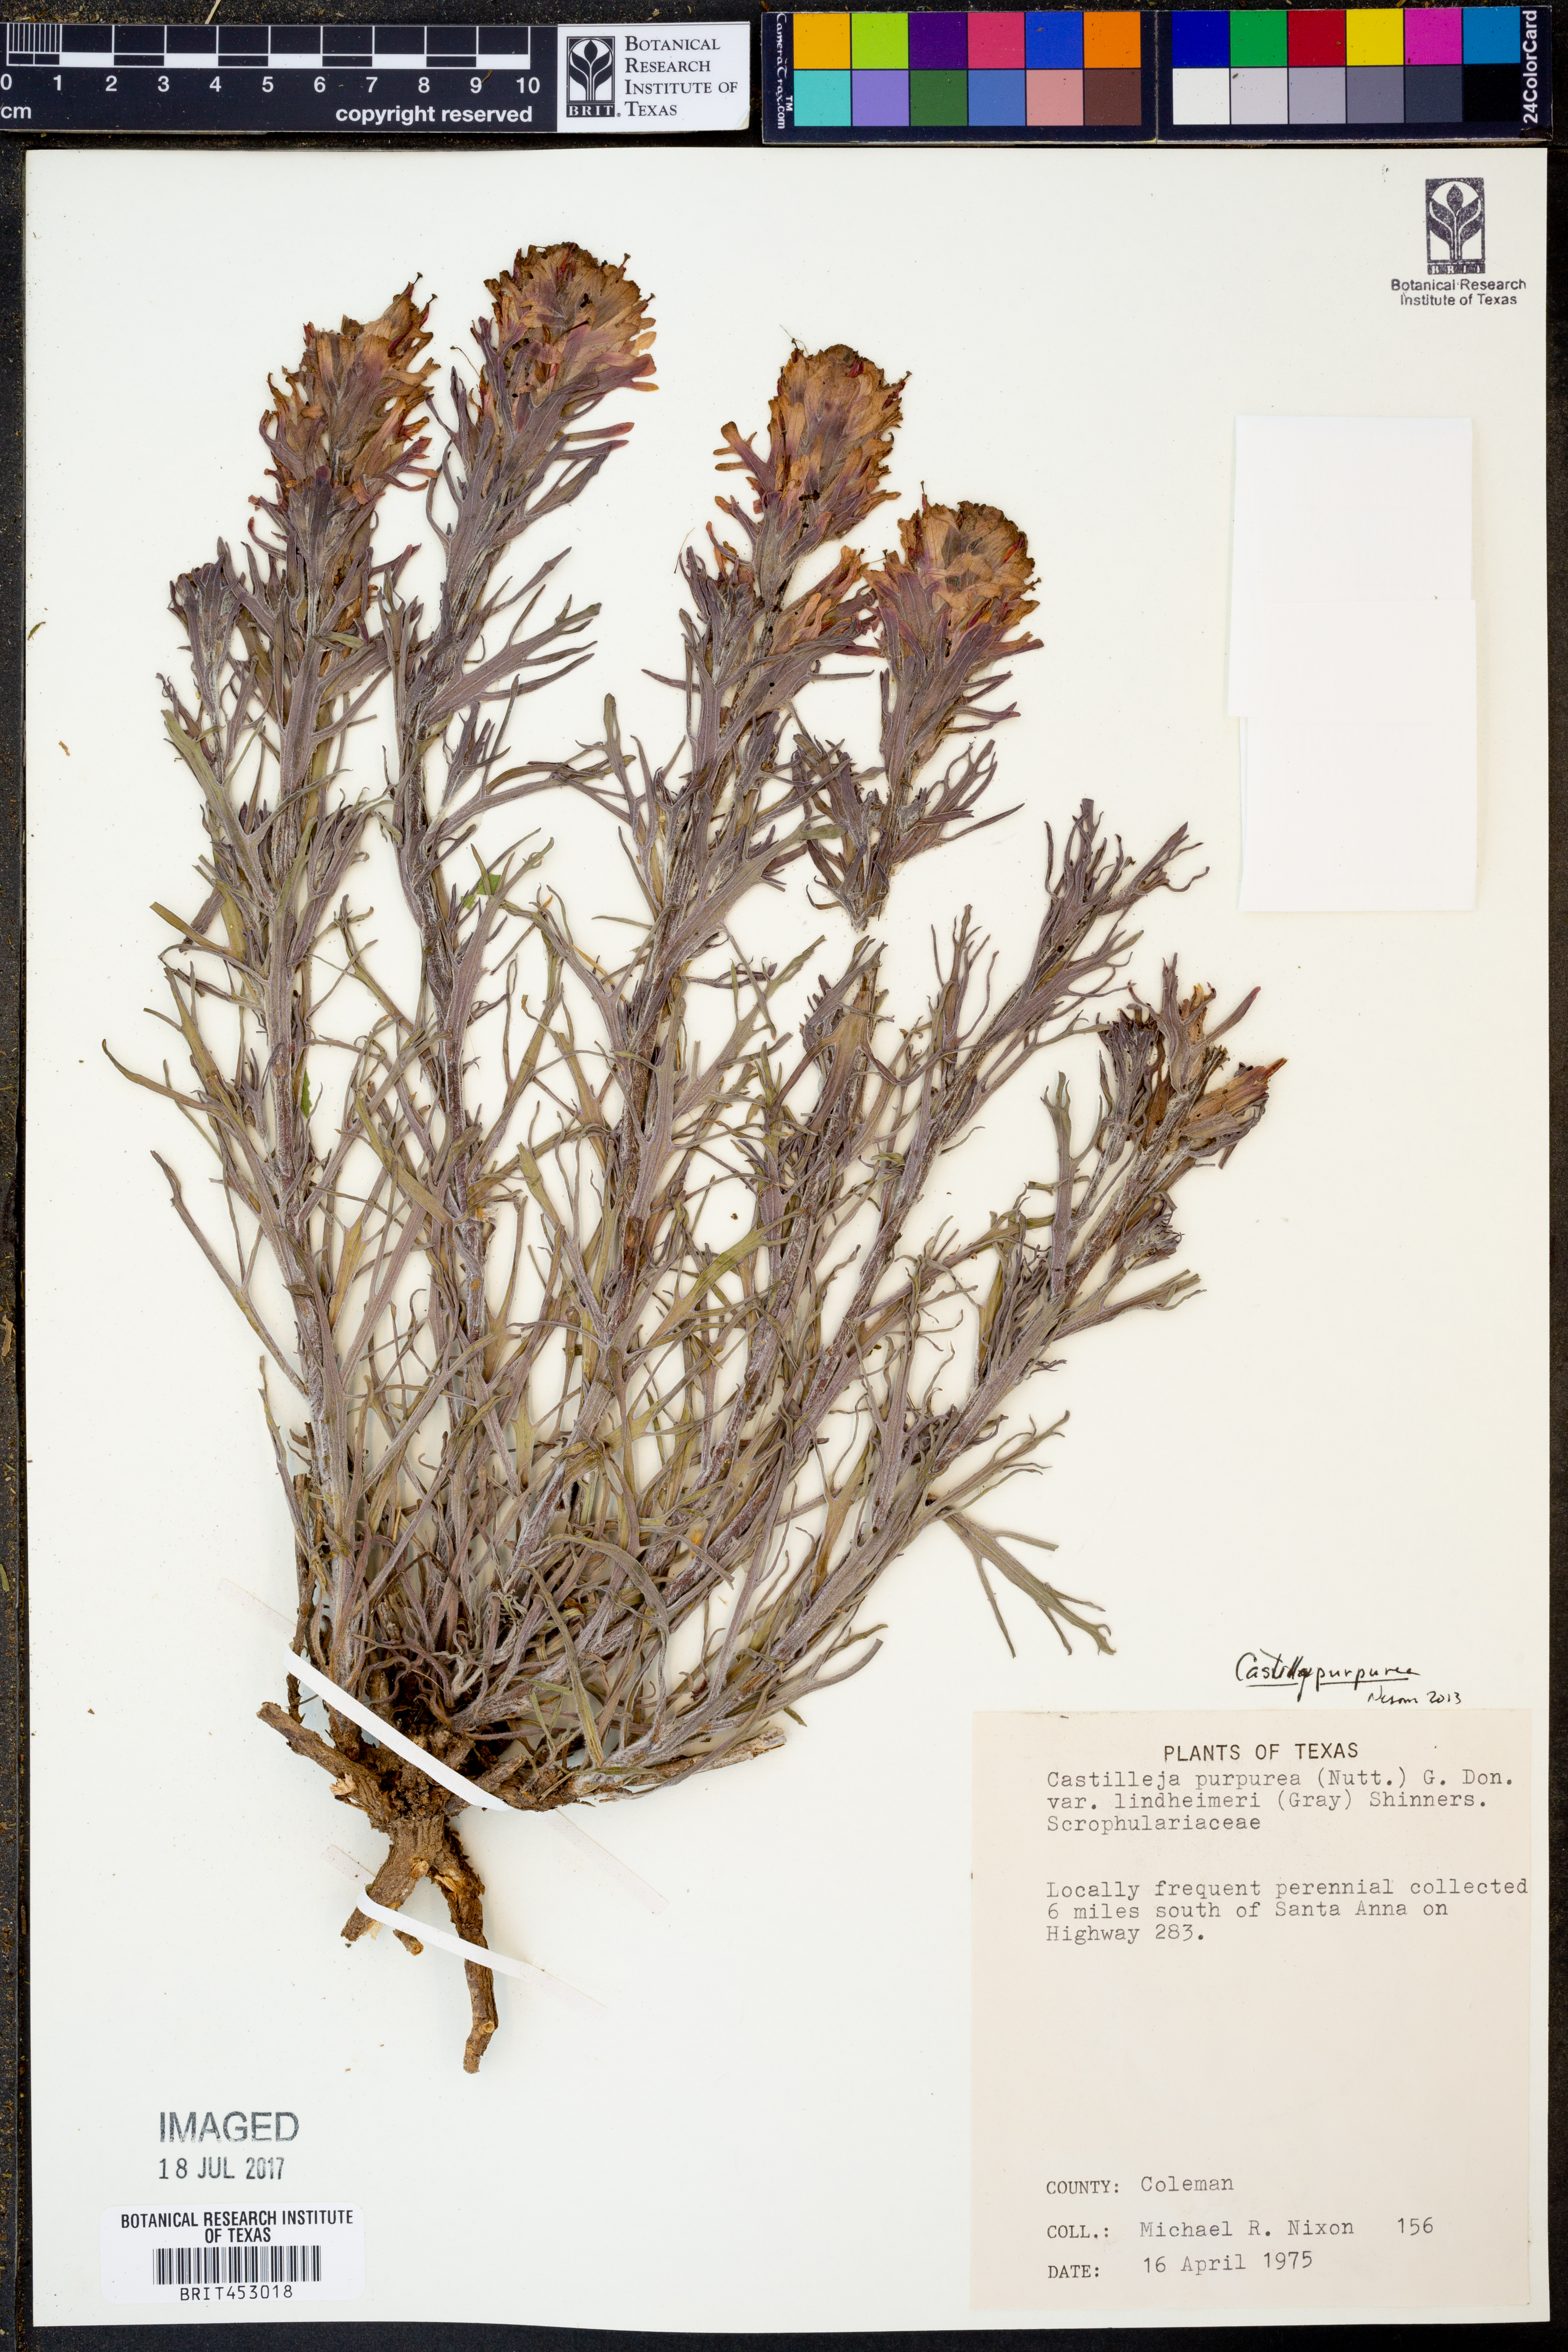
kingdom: Plantae
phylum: Tracheophyta
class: Magnoliopsida
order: Lamiales
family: Orobanchaceae
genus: Castilleja
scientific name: Castilleja lindheimeri
